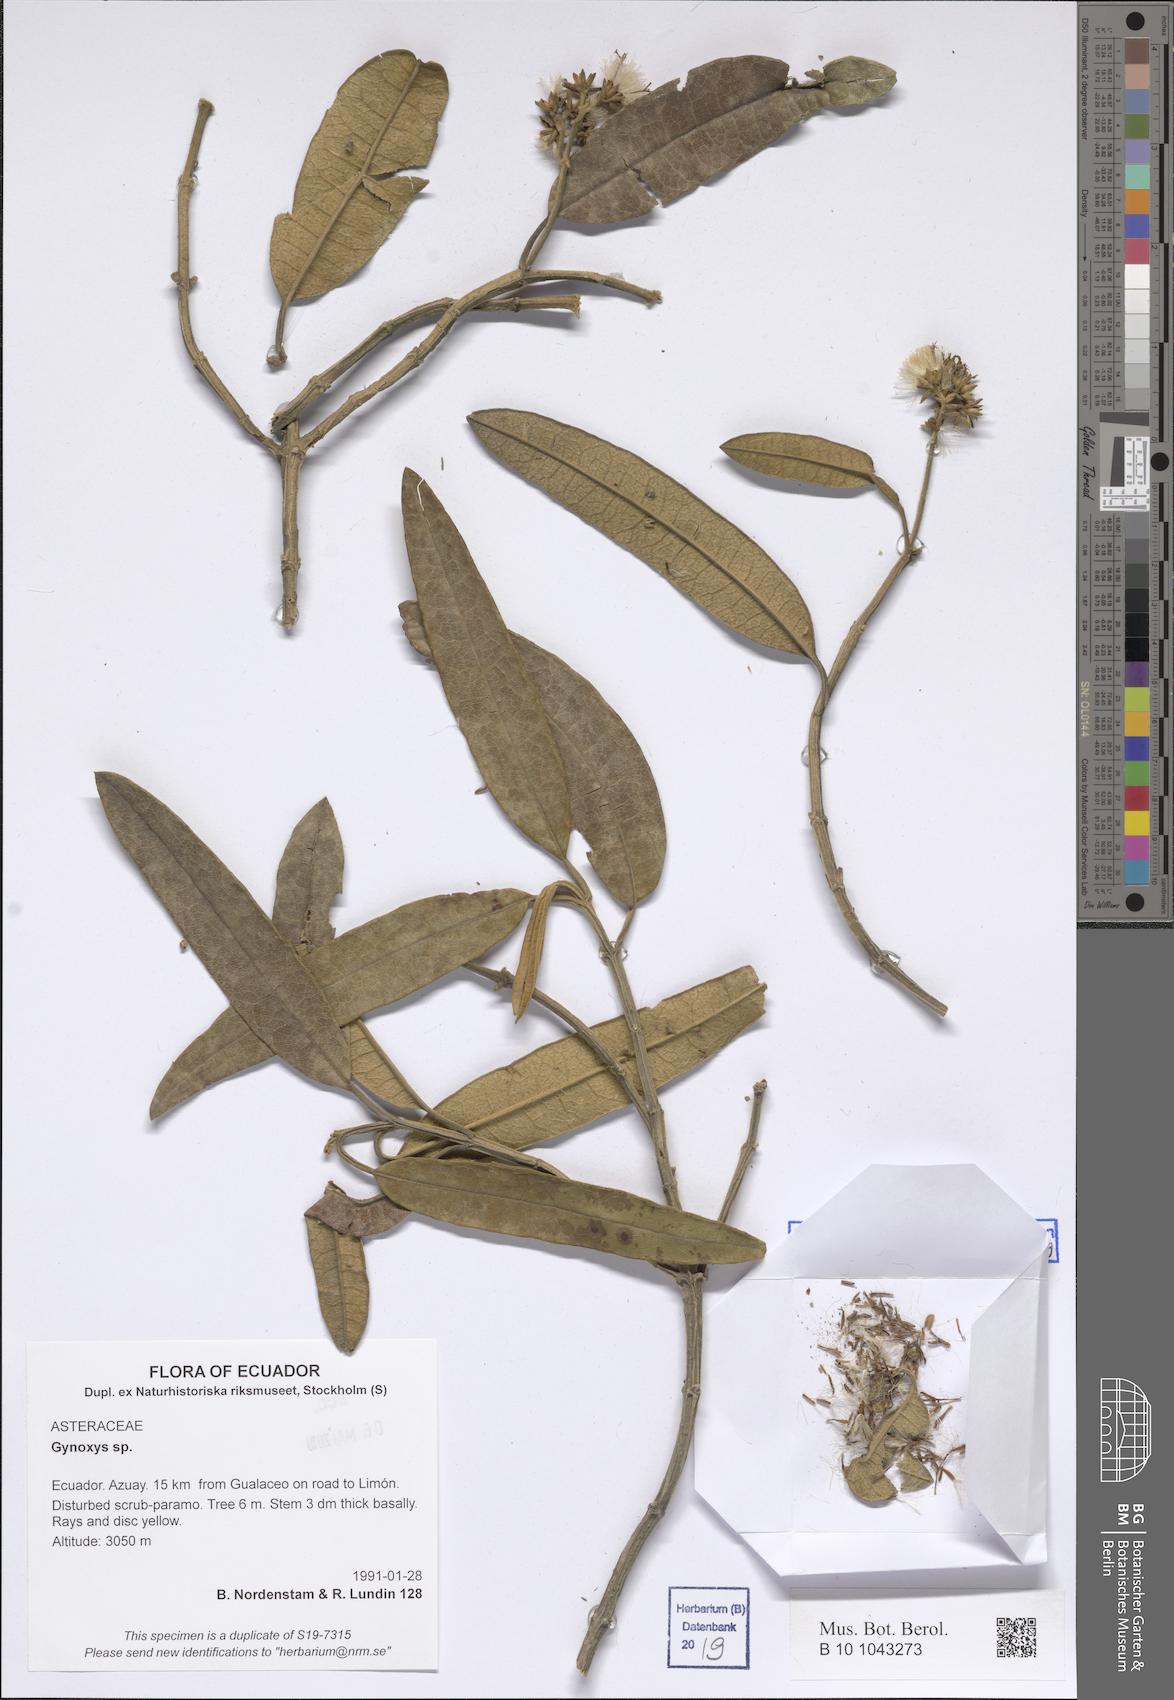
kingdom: Plantae
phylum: Tracheophyta
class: Magnoliopsida
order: Asterales
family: Asteraceae
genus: Gynoxys
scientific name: Gynoxys
